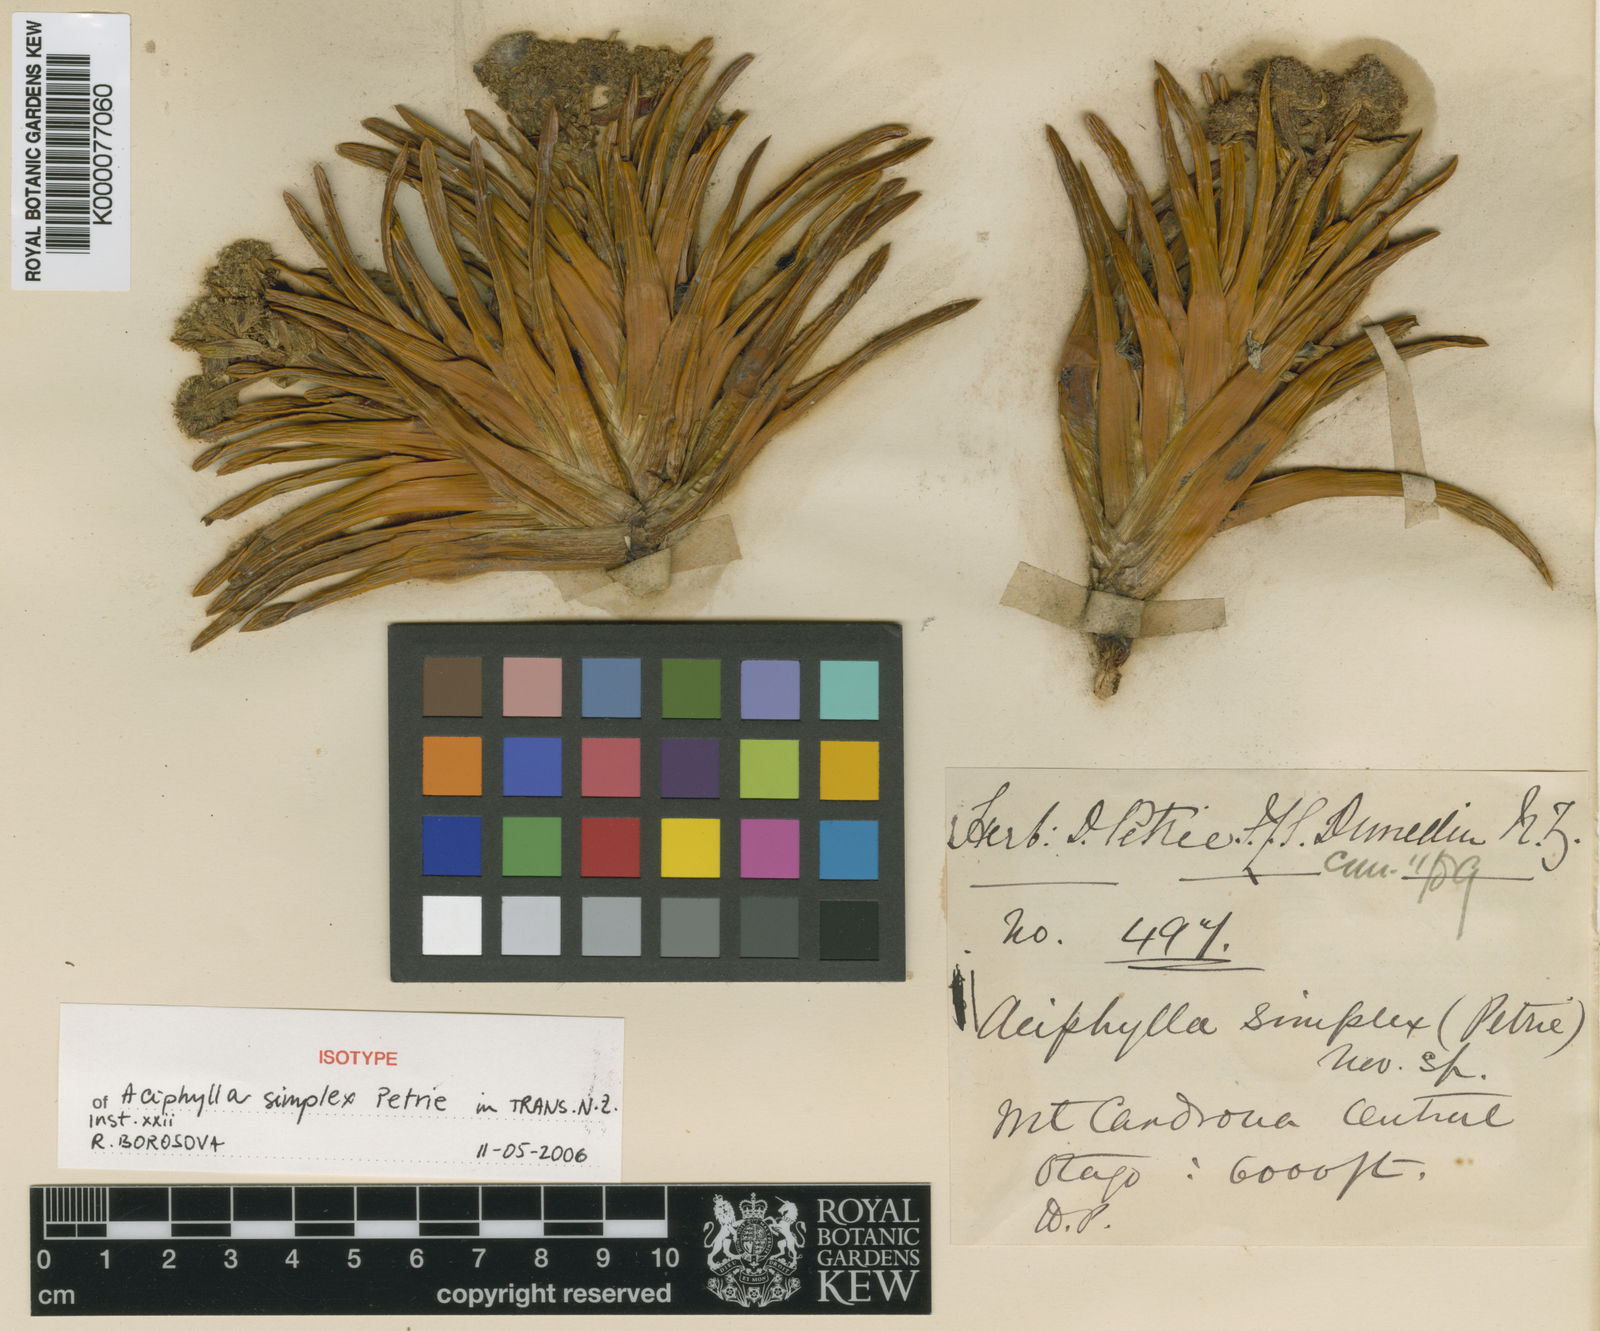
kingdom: Plantae
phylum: Tracheophyta
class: Magnoliopsida
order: Apiales
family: Apiaceae
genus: Aciphylla
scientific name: Aciphylla simplex
